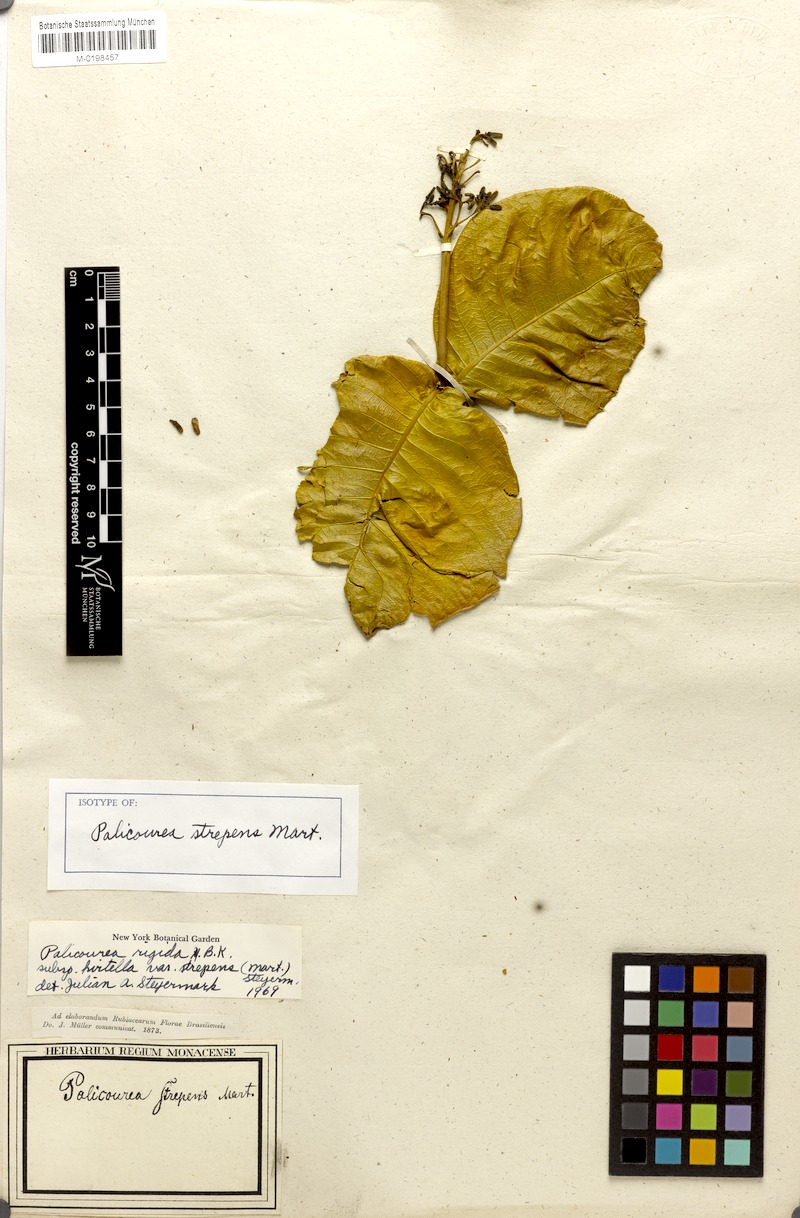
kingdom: Plantae
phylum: Tracheophyta
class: Magnoliopsida
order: Gentianales
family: Rubiaceae
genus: Palicourea
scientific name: Palicourea rigida
